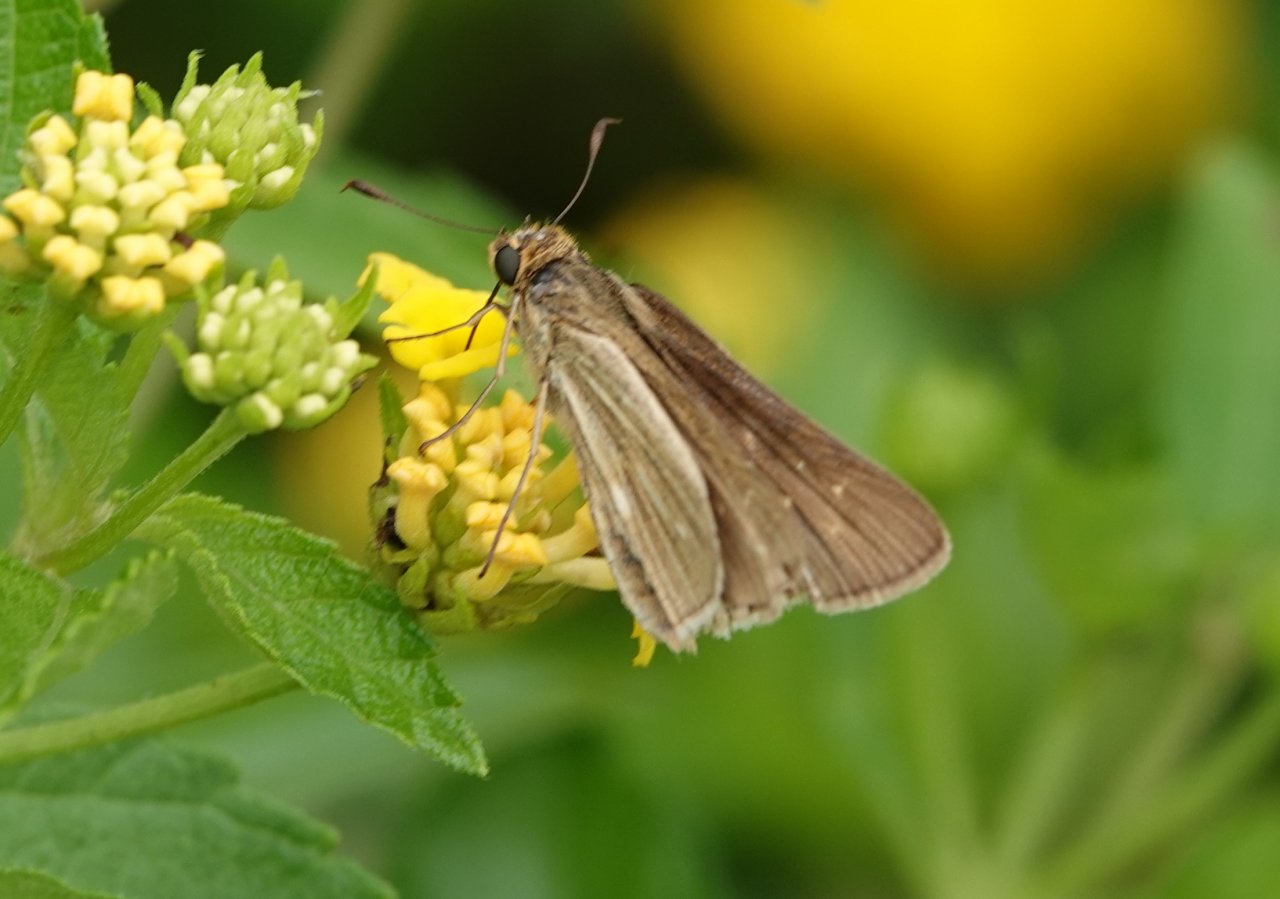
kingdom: Animalia
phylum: Arthropoda
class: Insecta
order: Lepidoptera
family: Hesperiidae
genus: Panoquina
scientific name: Panoquina panoquin
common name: Salt Marsh Skipper
